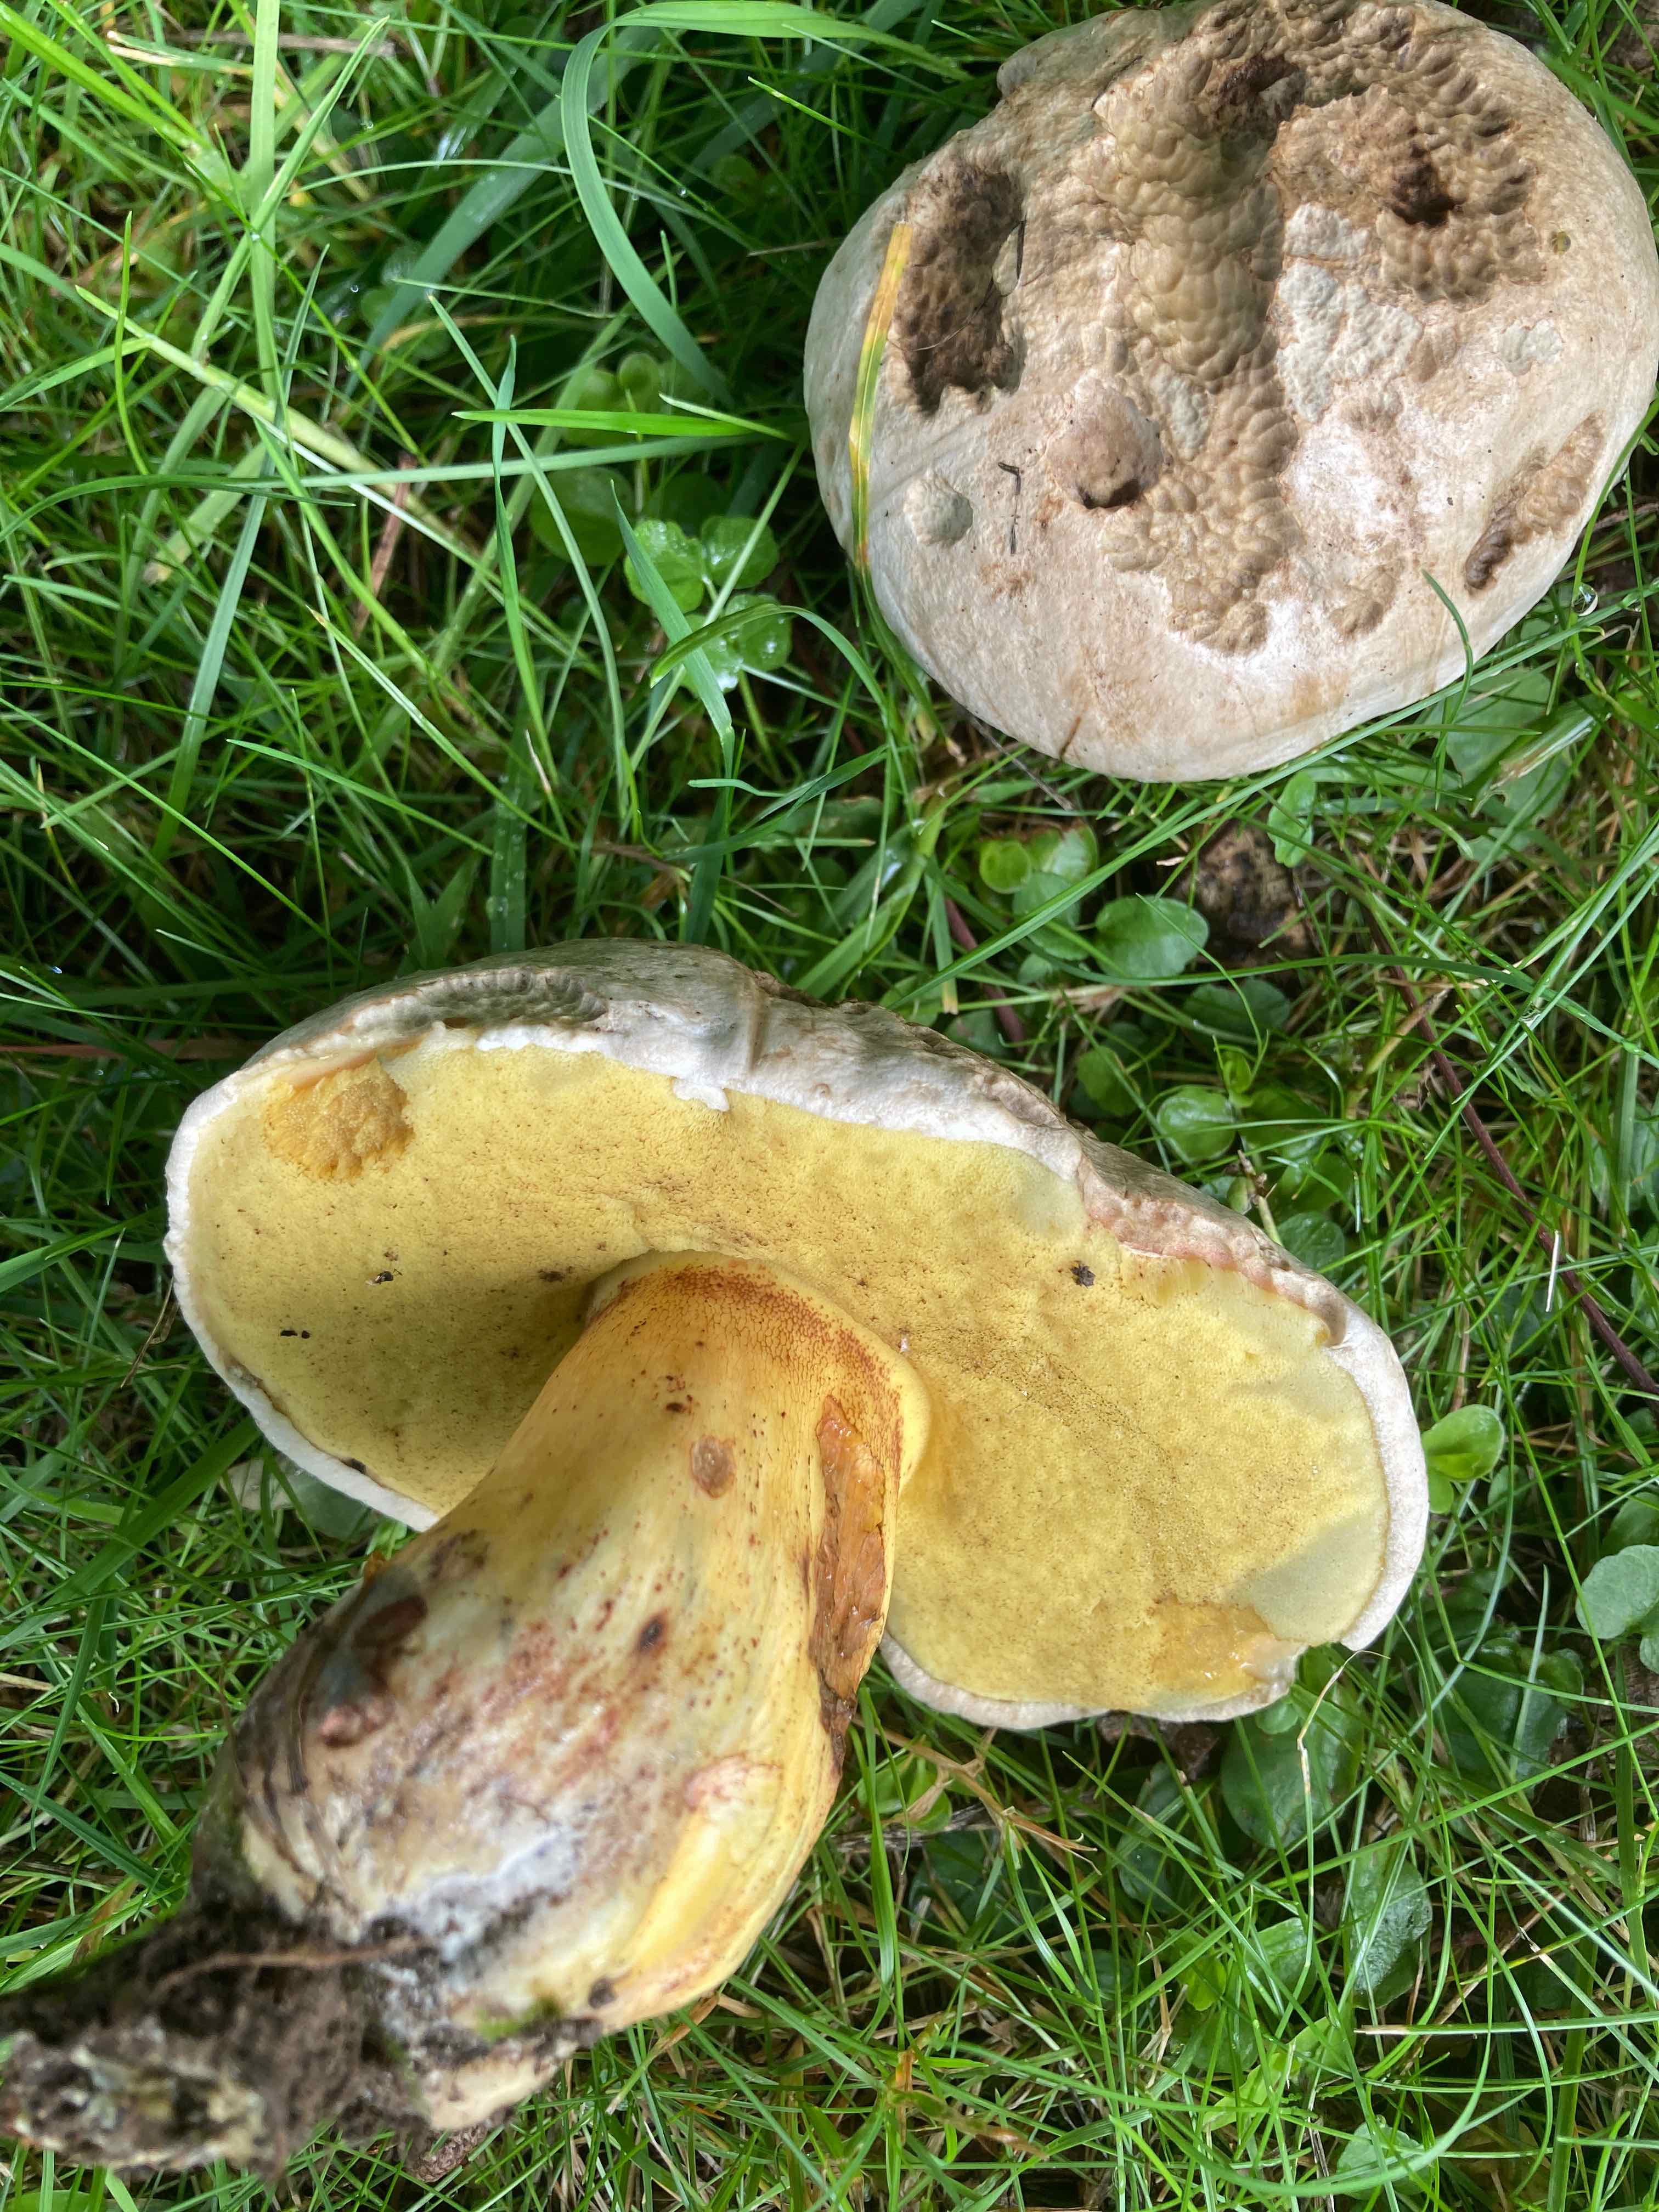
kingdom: Fungi
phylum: Basidiomycota
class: Agaricomycetes
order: Boletales
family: Boletaceae
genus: Caloboletus
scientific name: Caloboletus radicans
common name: rod-rørhat
